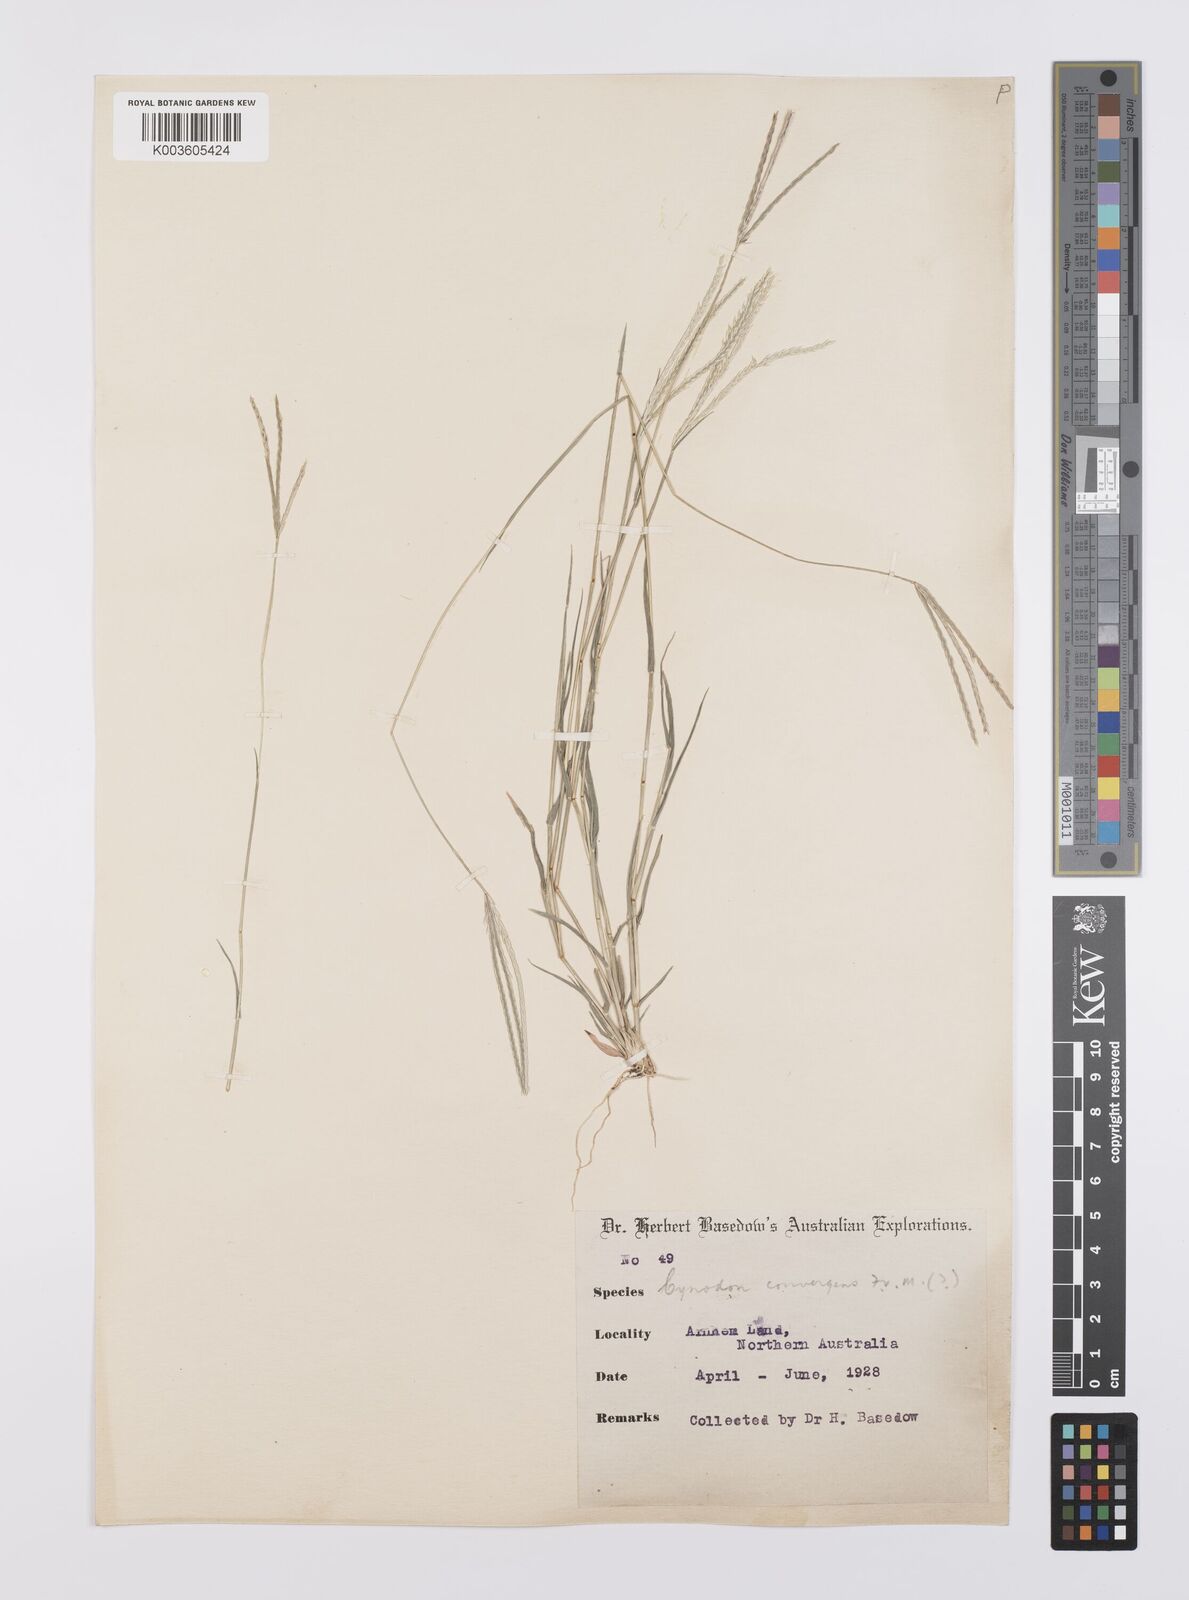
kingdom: Plantae
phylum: Tracheophyta
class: Liliopsida
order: Poales
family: Poaceae
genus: Cynodon
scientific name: Cynodon convergens
